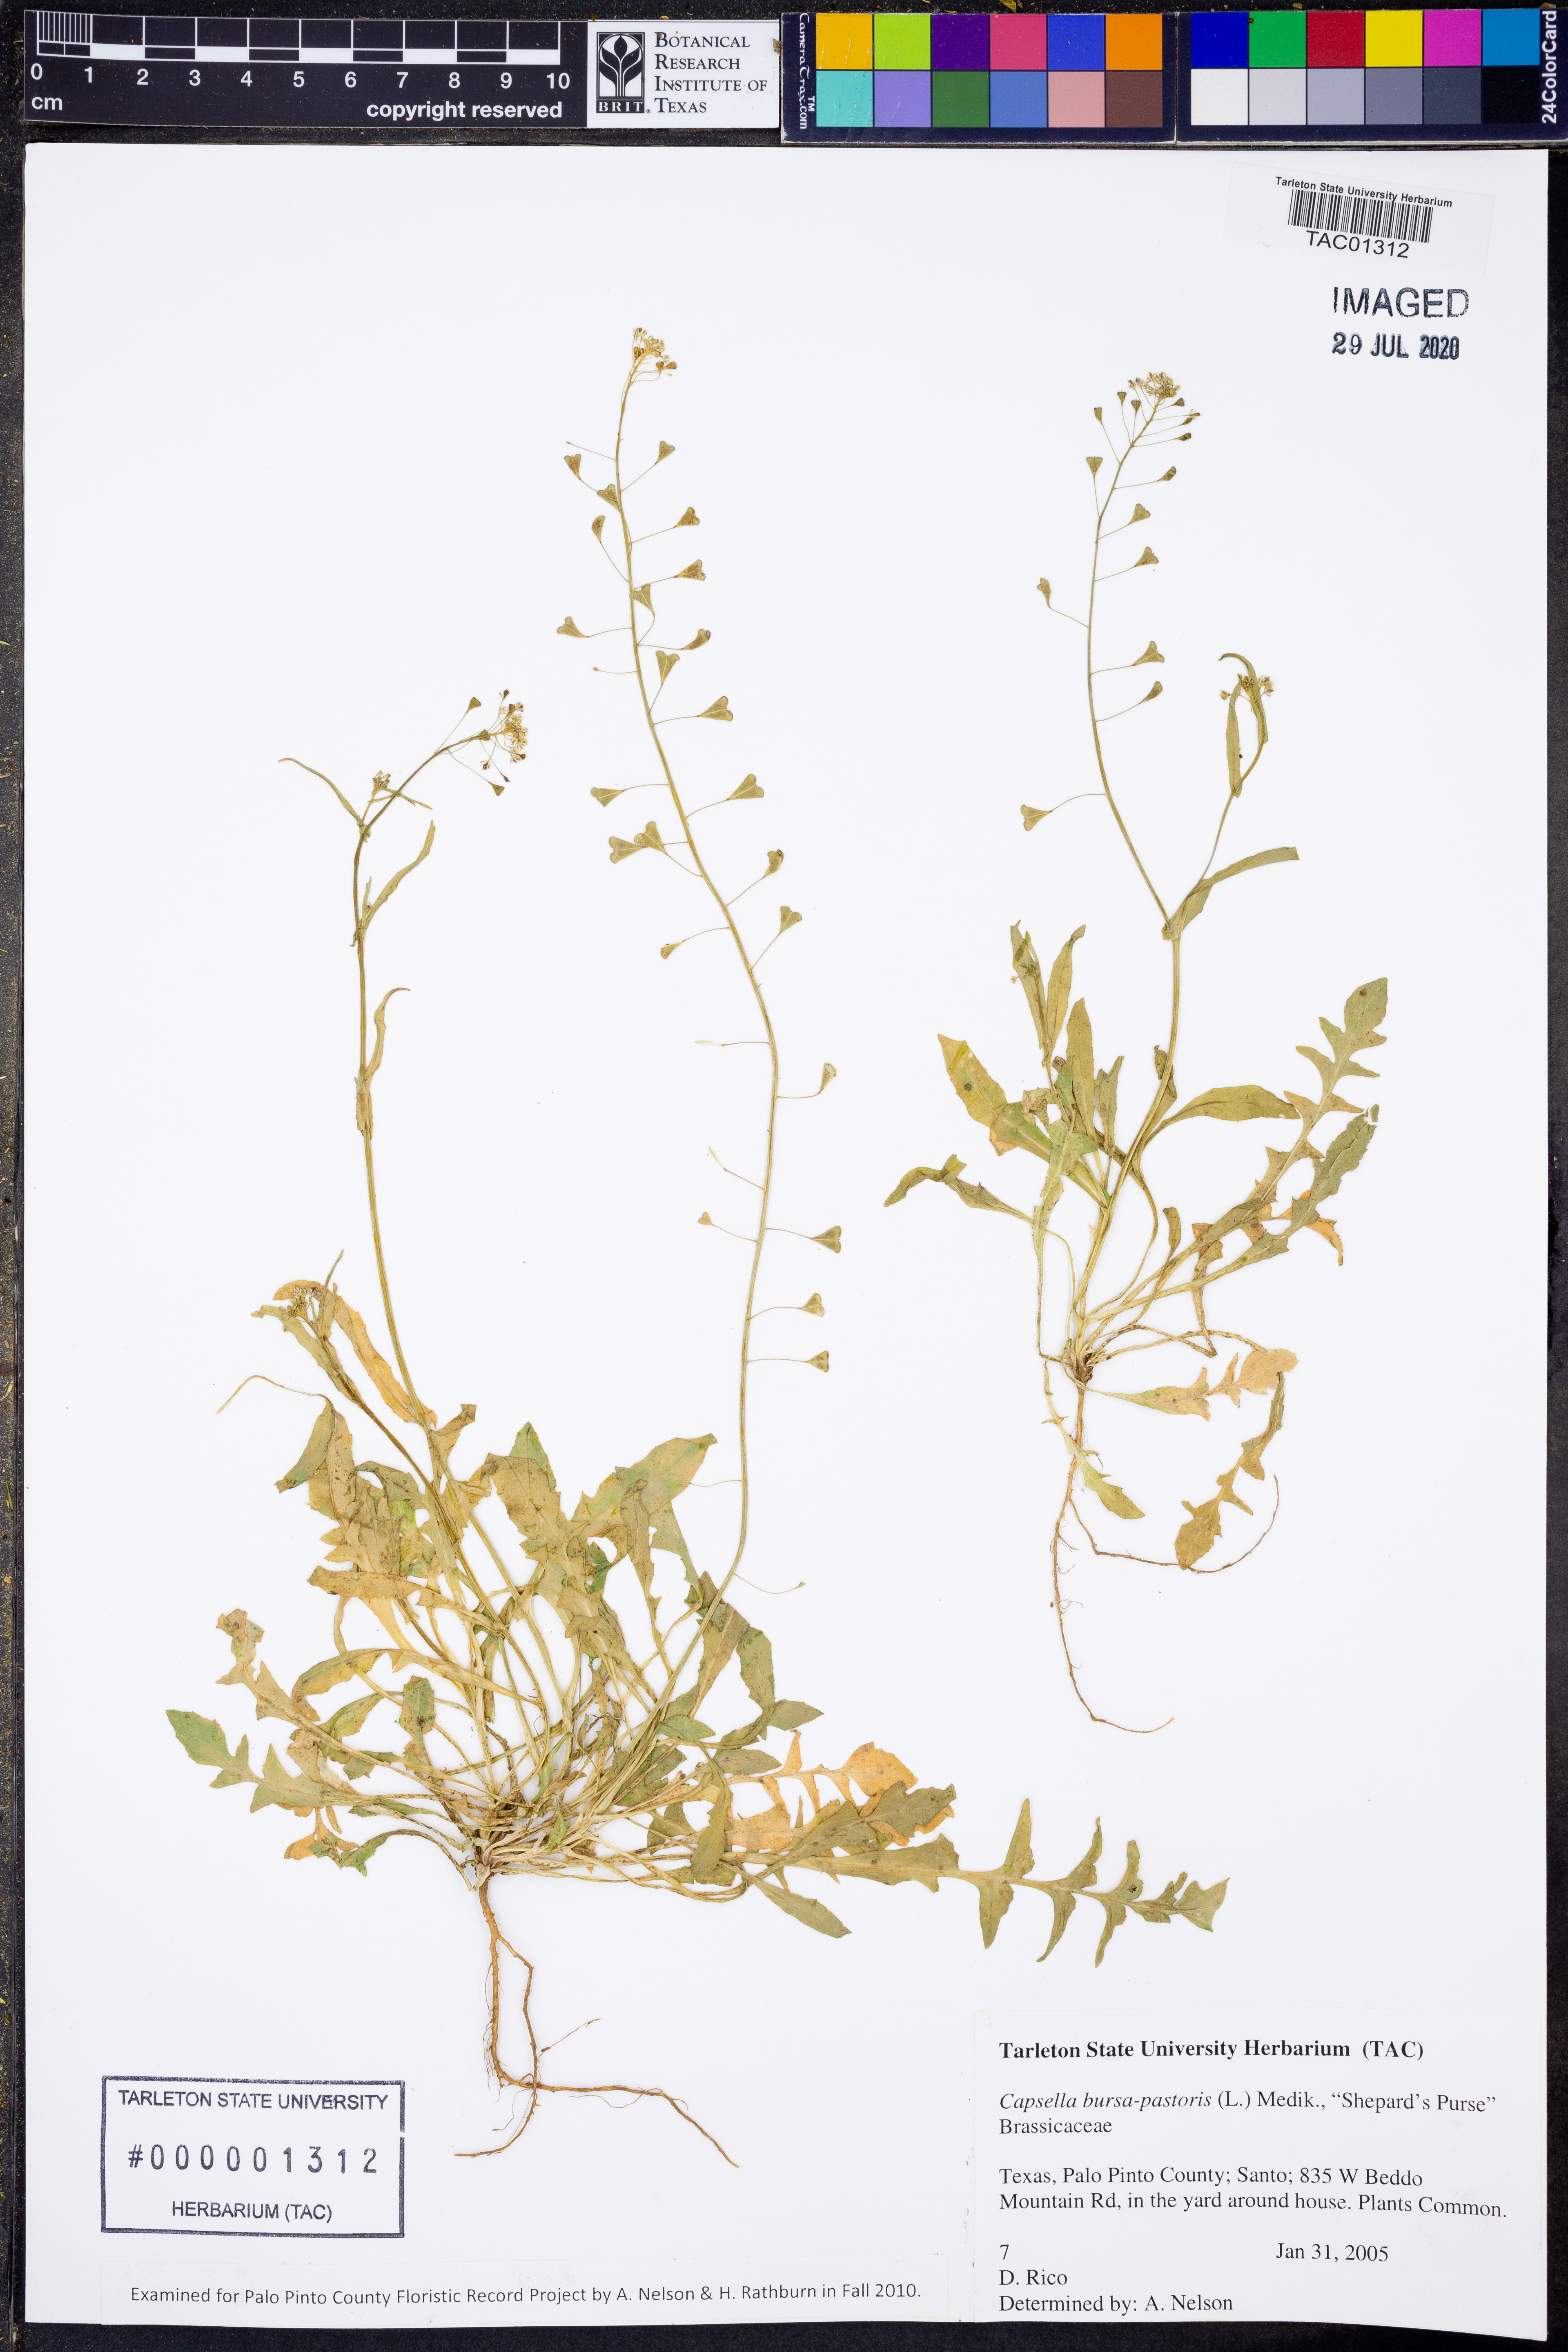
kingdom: Plantae
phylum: Tracheophyta
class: Magnoliopsida
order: Brassicales
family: Brassicaceae
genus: Capsella
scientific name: Capsella bursa-pastoris
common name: Shepherd's purse
